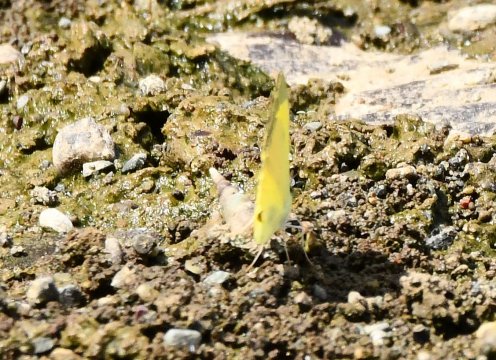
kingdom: Animalia
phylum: Arthropoda
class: Insecta
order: Lepidoptera
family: Pieridae
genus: Pyrisitia
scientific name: Pyrisitia
